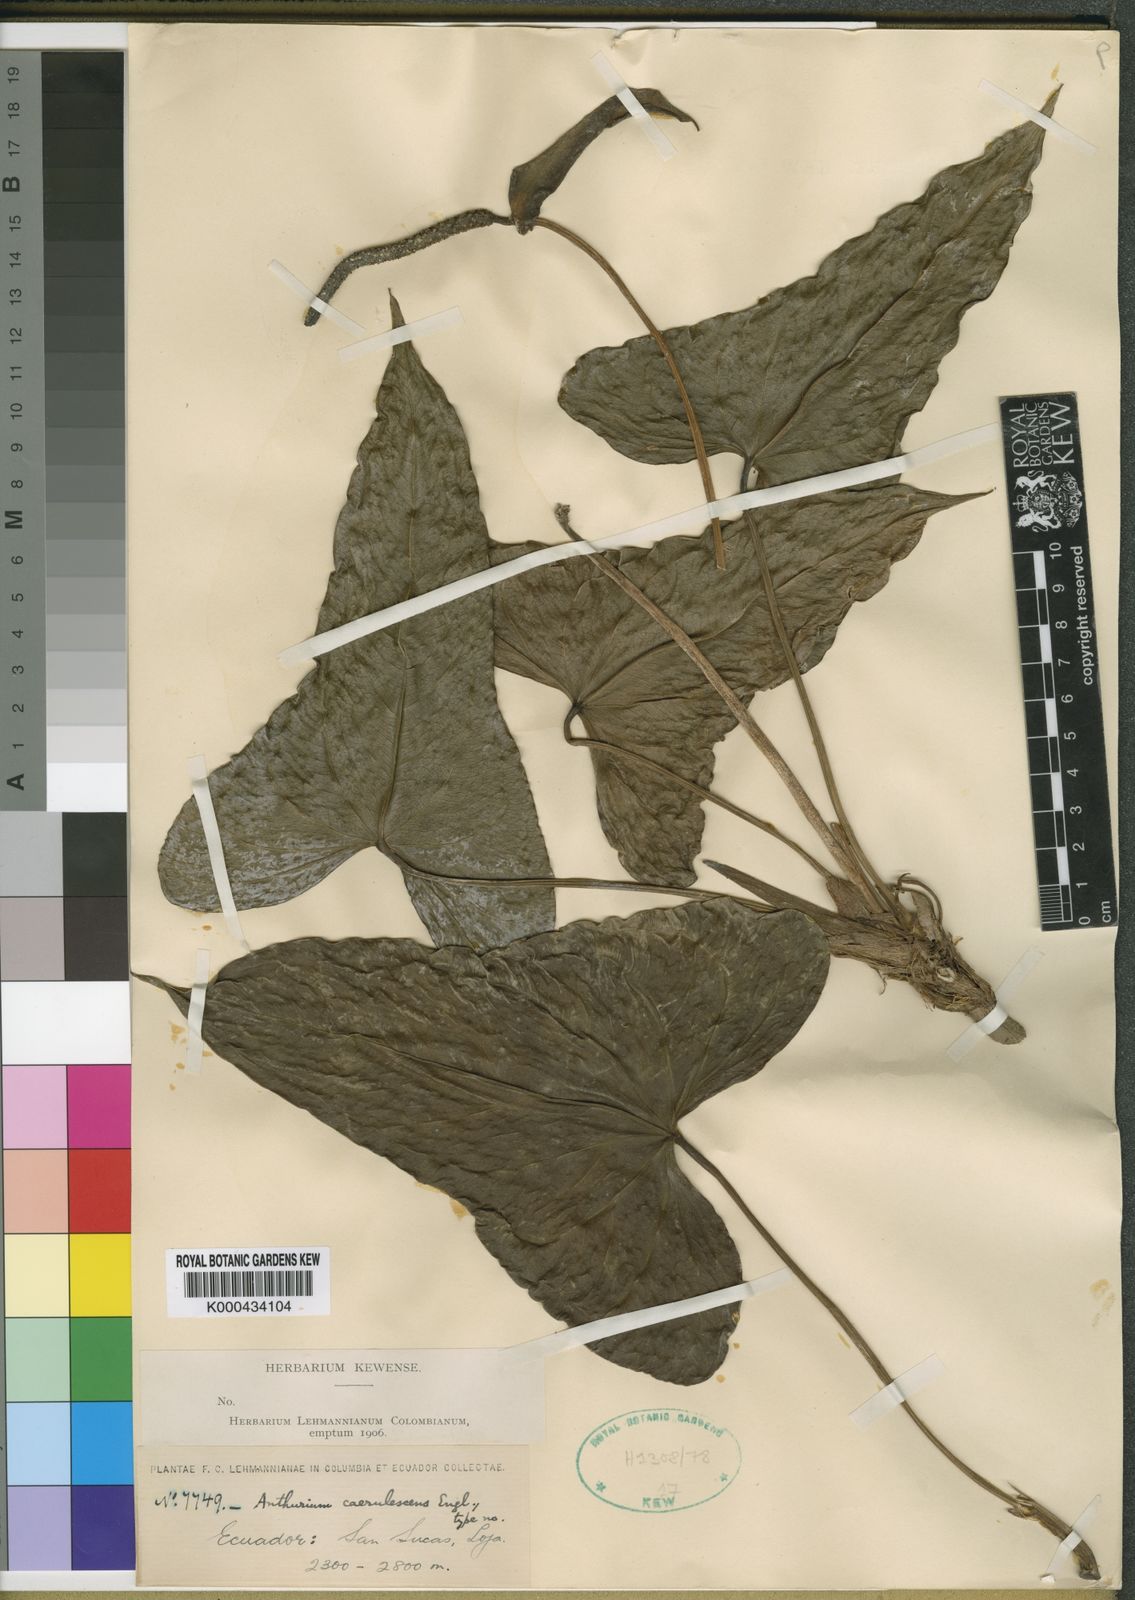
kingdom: Plantae
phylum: Tracheophyta
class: Liliopsida
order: Alismatales
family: Araceae
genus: Anthurium
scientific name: Anthurium
